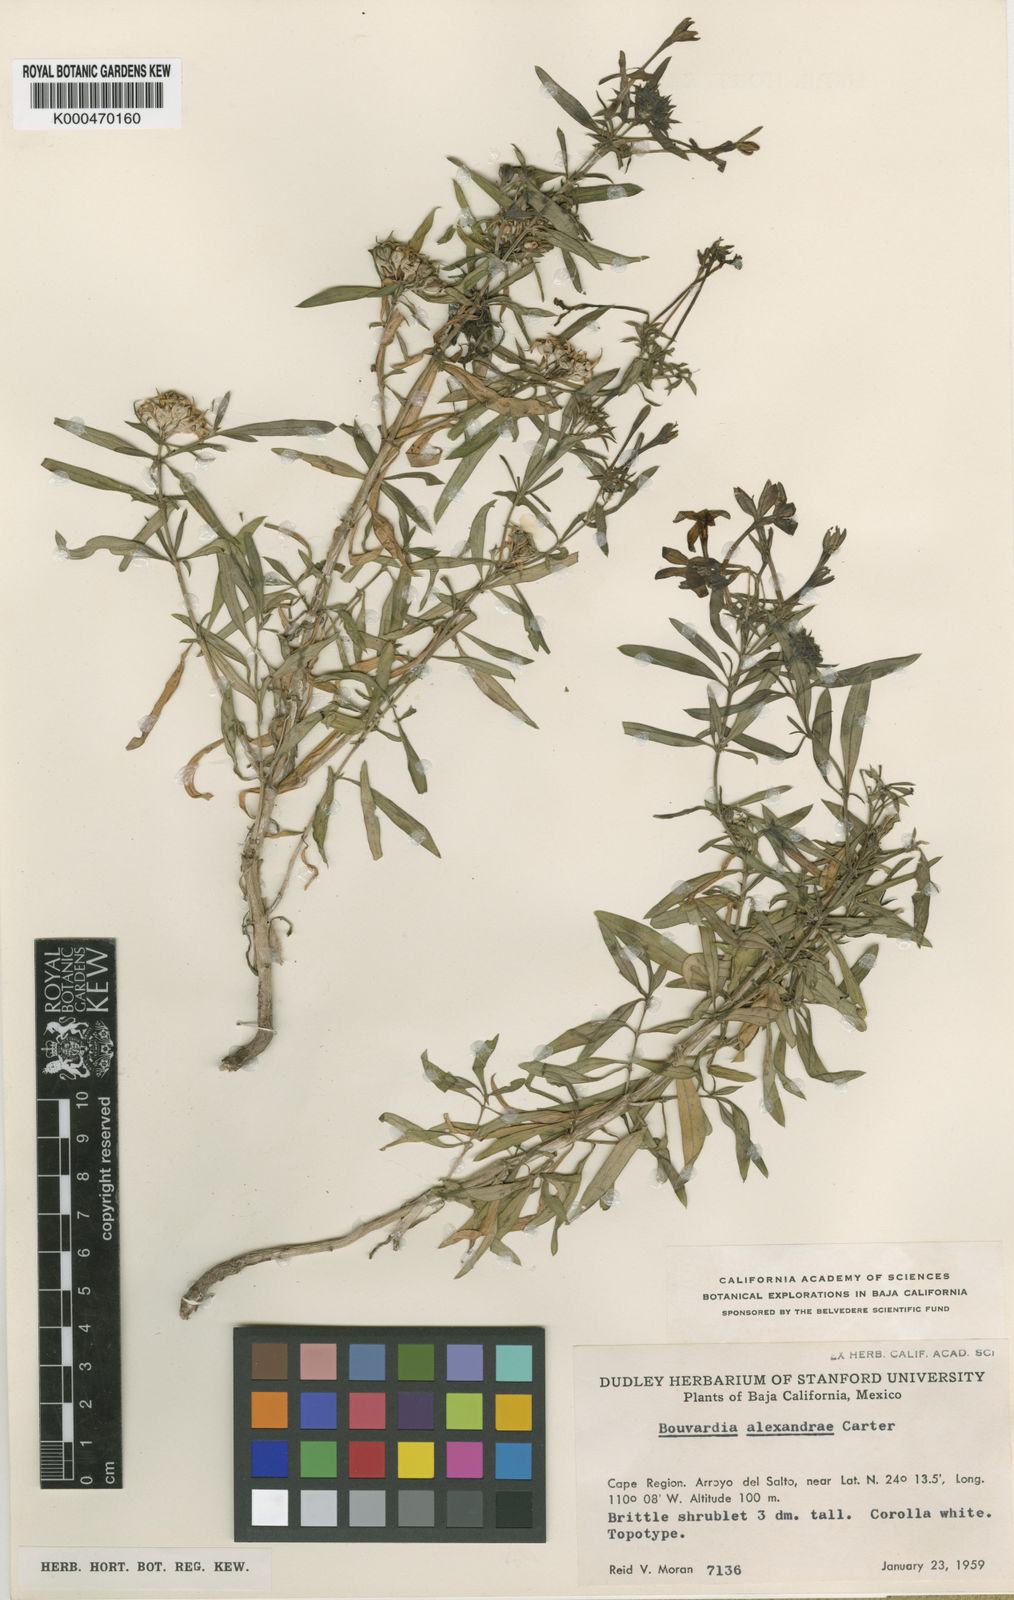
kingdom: Plantae
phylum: Tracheophyta
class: Magnoliopsida
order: Gentianales
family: Rubiaceae
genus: Carterella
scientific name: Carterella alexanderae
